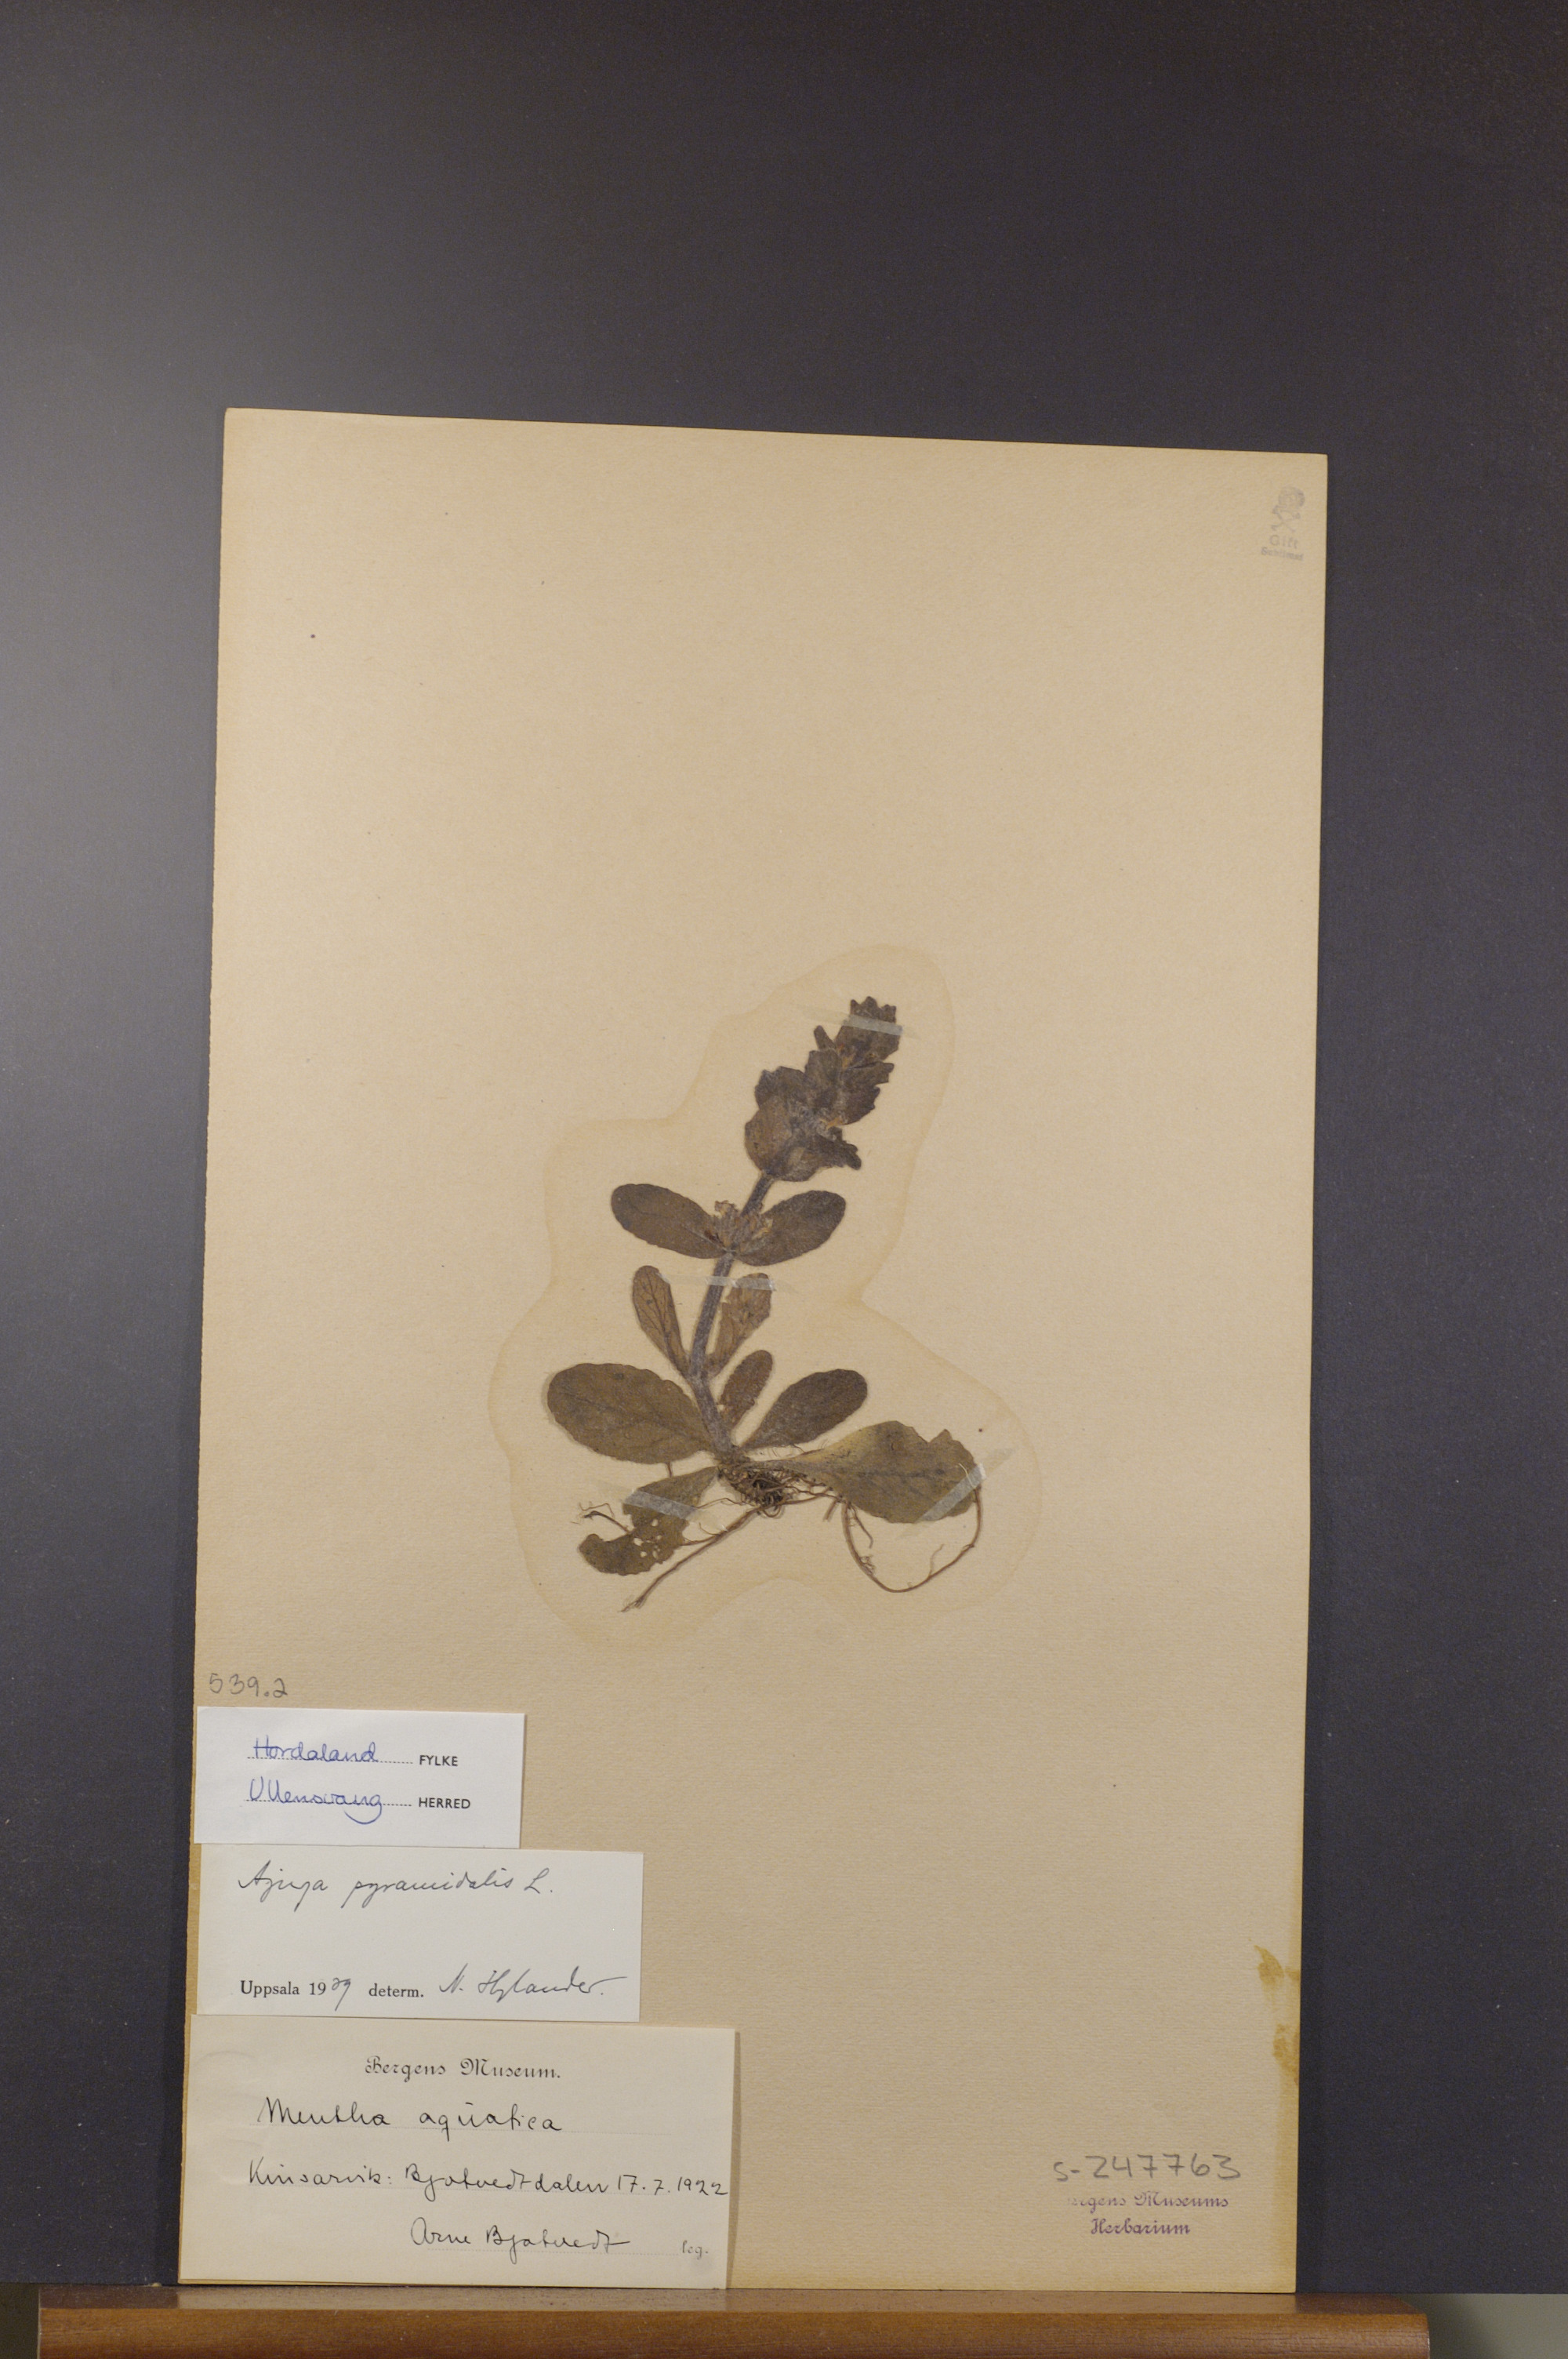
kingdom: Plantae
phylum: Tracheophyta
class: Magnoliopsida
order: Lamiales
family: Lamiaceae
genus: Ajuga
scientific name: Ajuga pyramidalis
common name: Pyramid bugle
